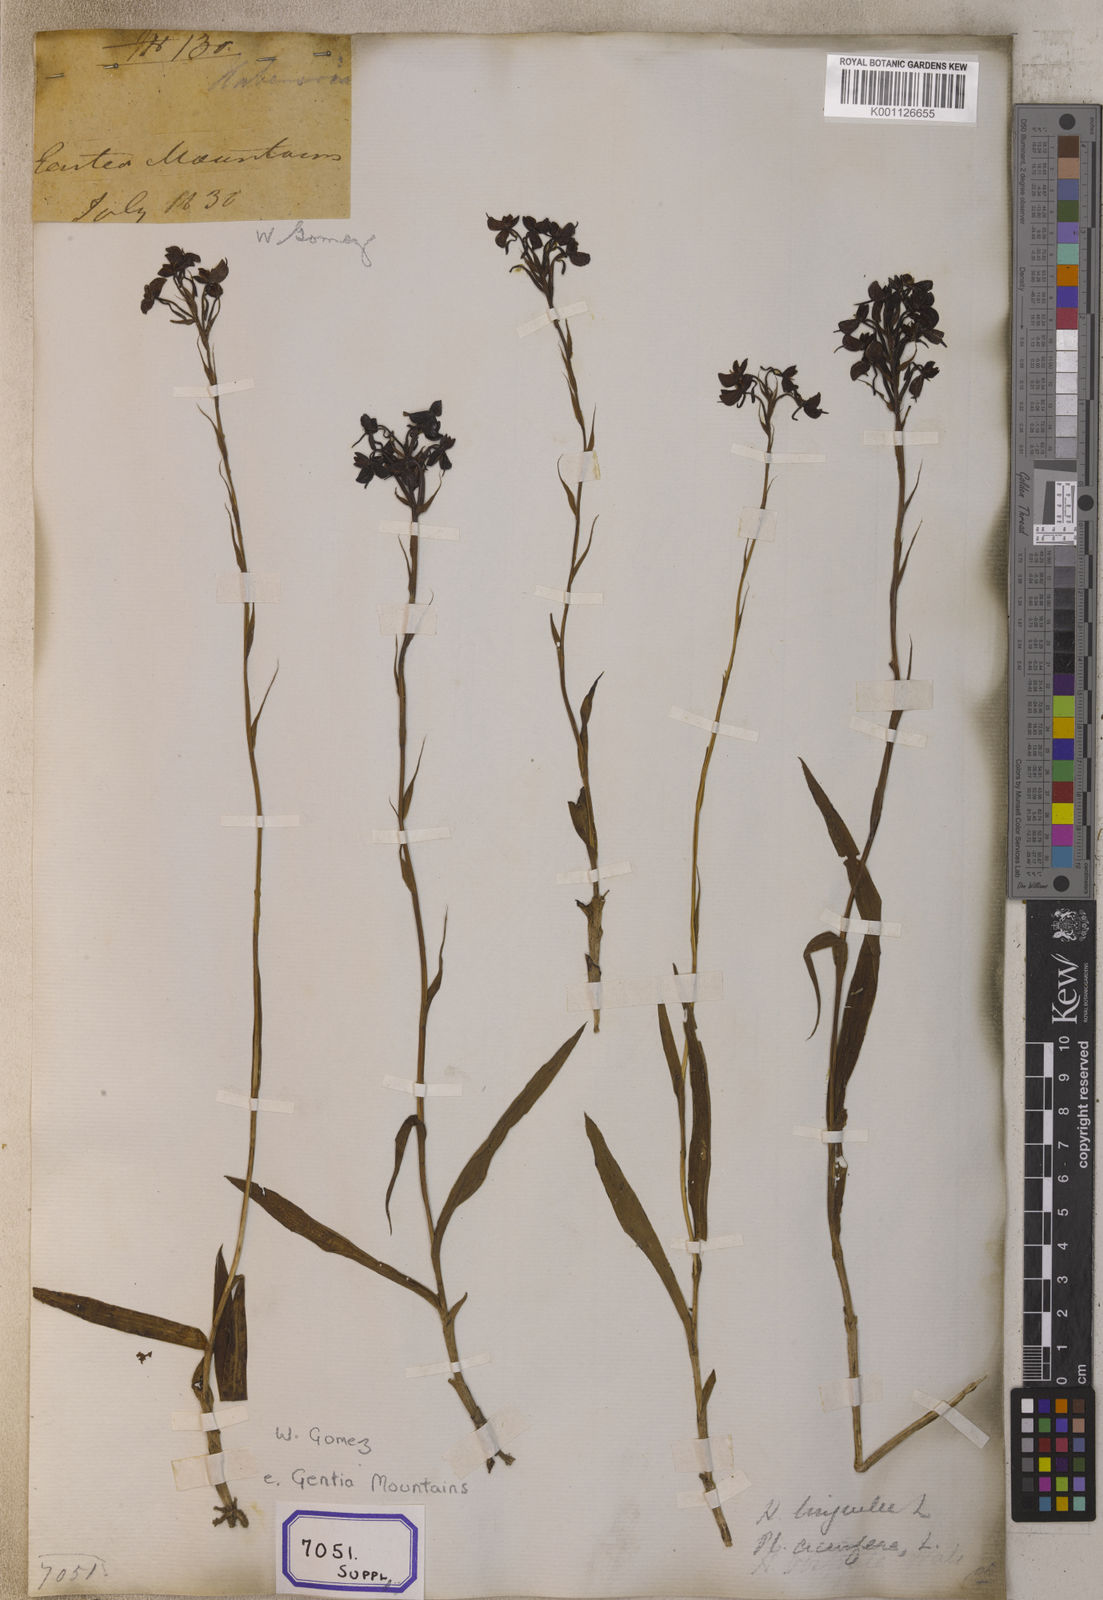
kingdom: Plantae
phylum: Tracheophyta
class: Liliopsida
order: Asparagales
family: Orchidaceae
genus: Platanthera
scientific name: Platanthera
